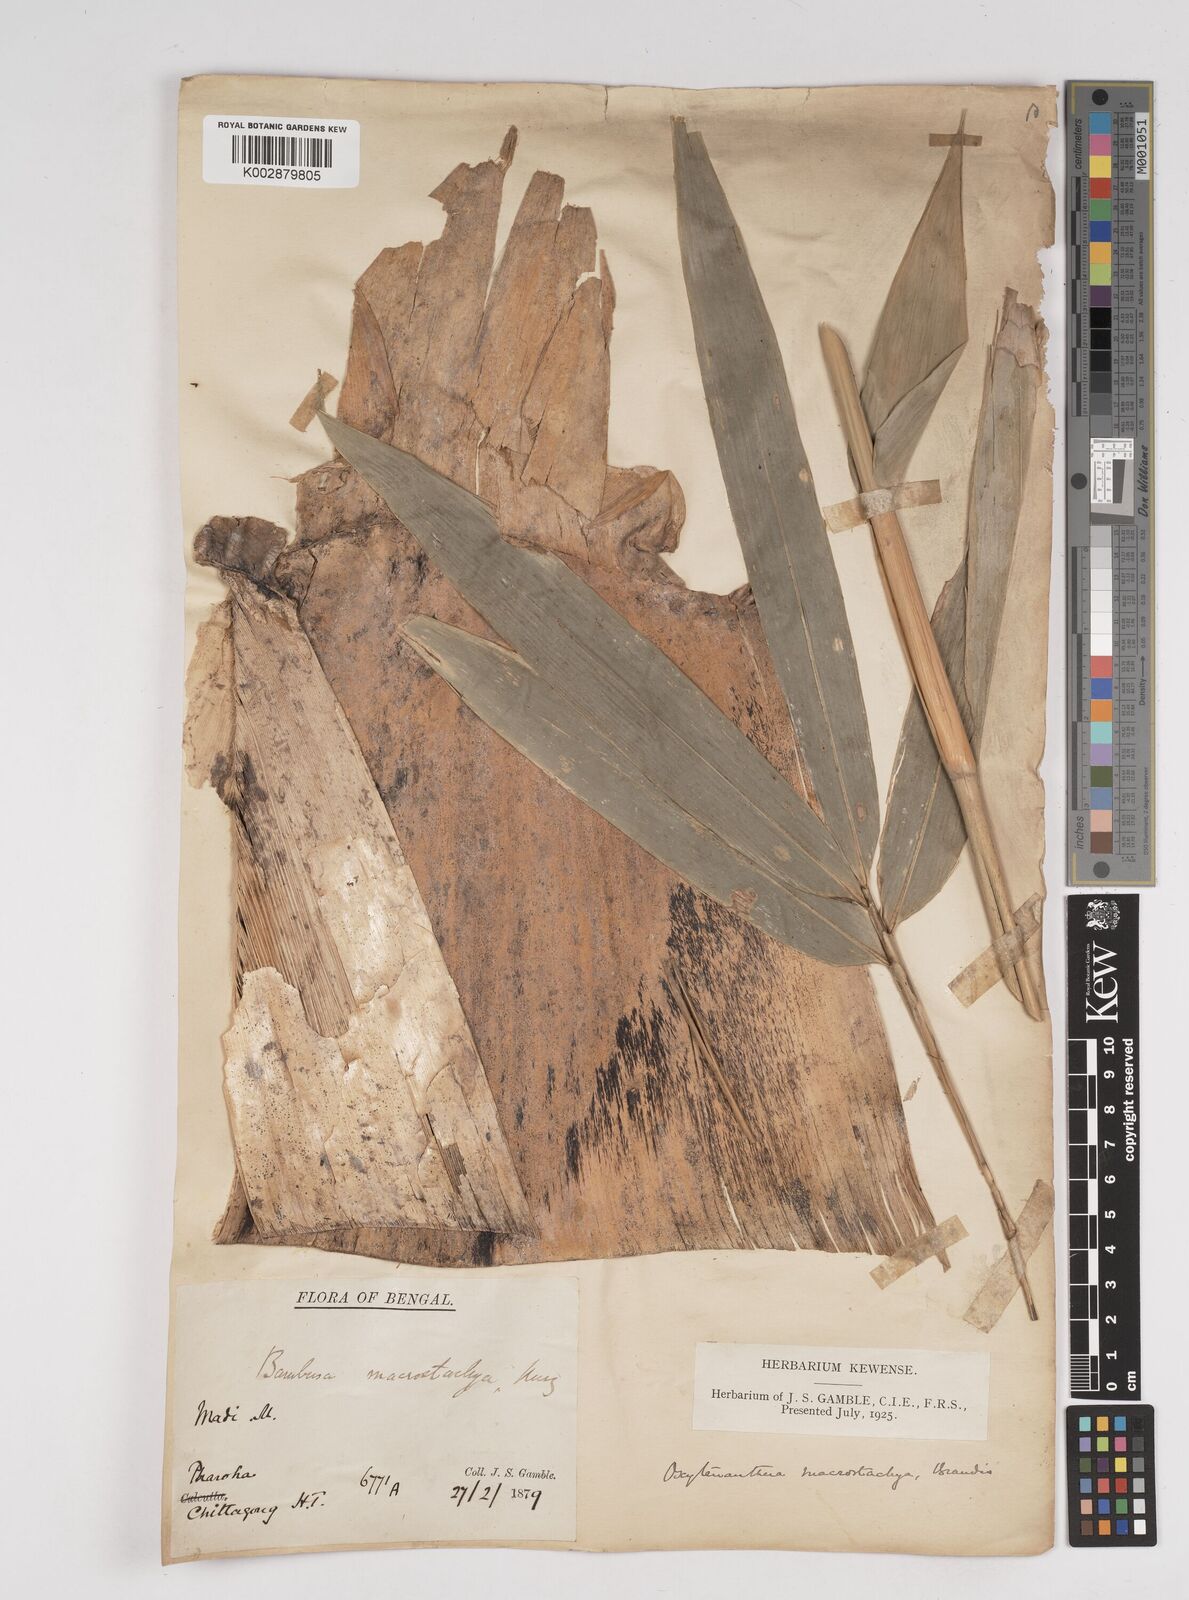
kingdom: Plantae
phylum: Tracheophyta
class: Liliopsida
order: Poales
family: Poaceae
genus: Gigantochloa
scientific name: Gigantochloa macrostachya
